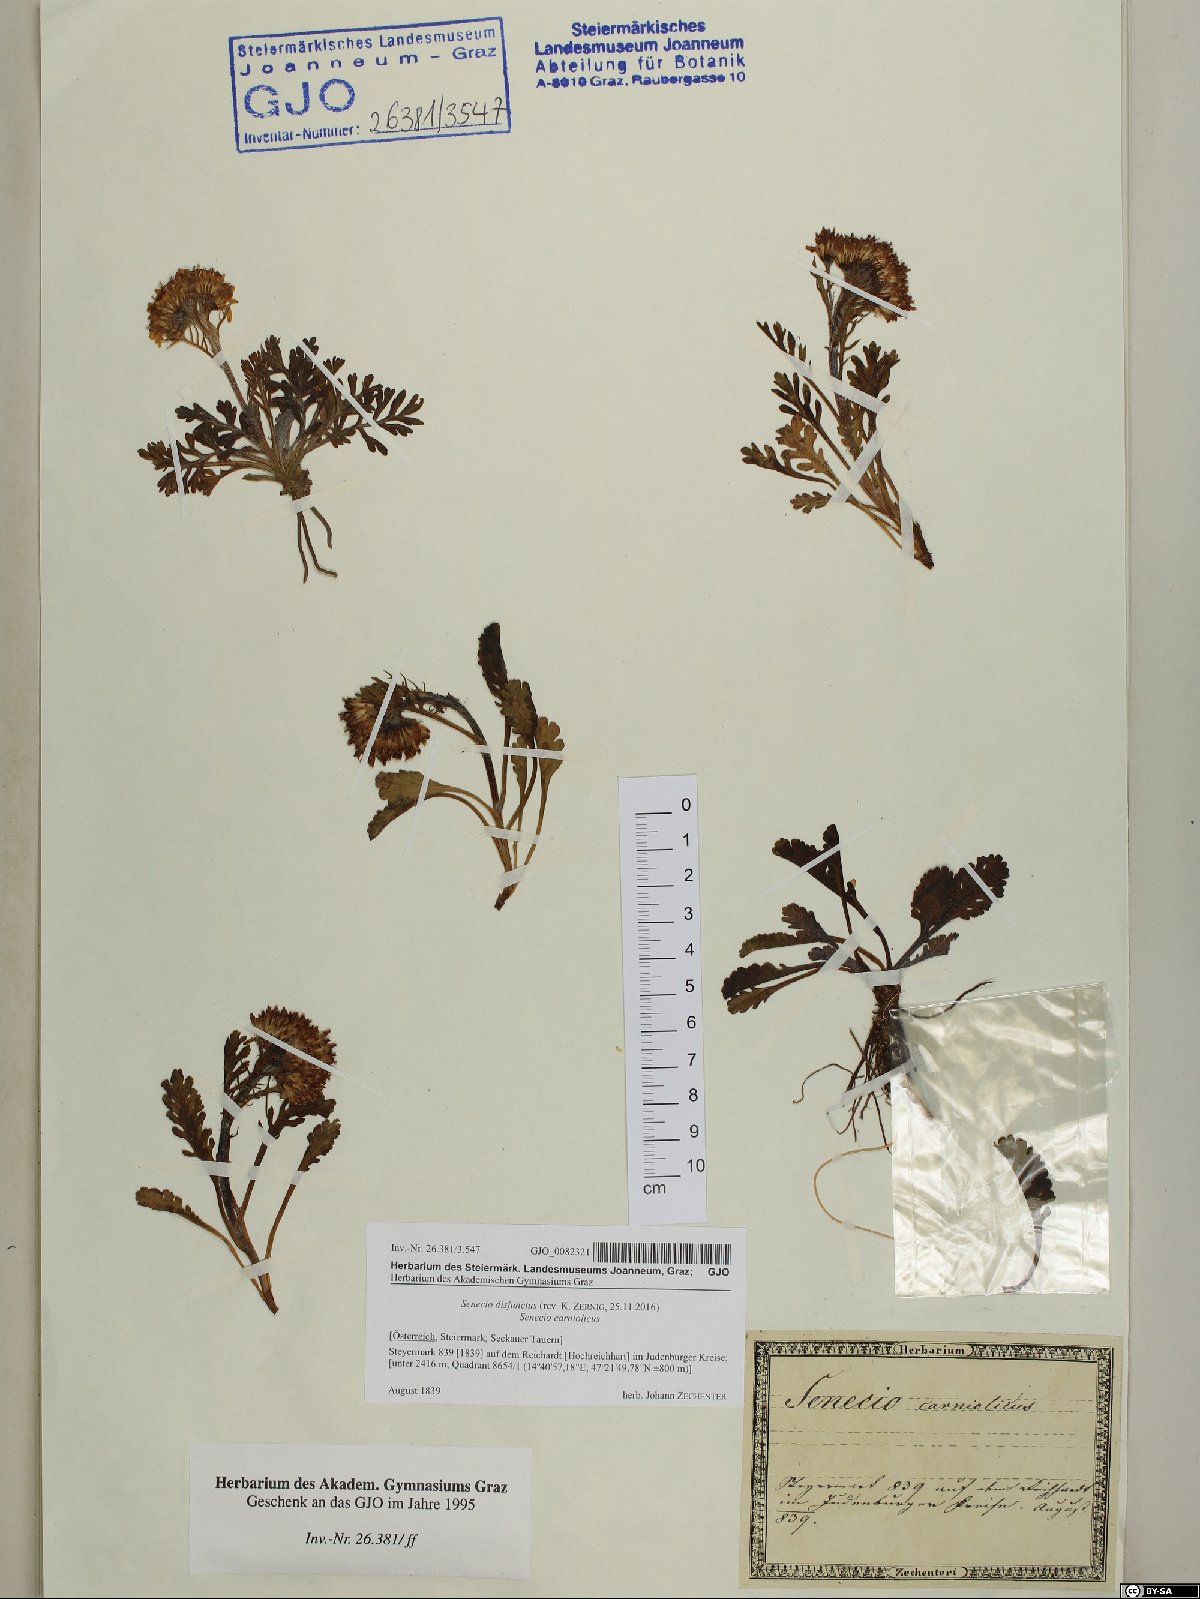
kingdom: Plantae
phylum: Tracheophyta
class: Magnoliopsida
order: Asterales
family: Asteraceae
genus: Jacobaea
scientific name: Jacobaea disjuncta
